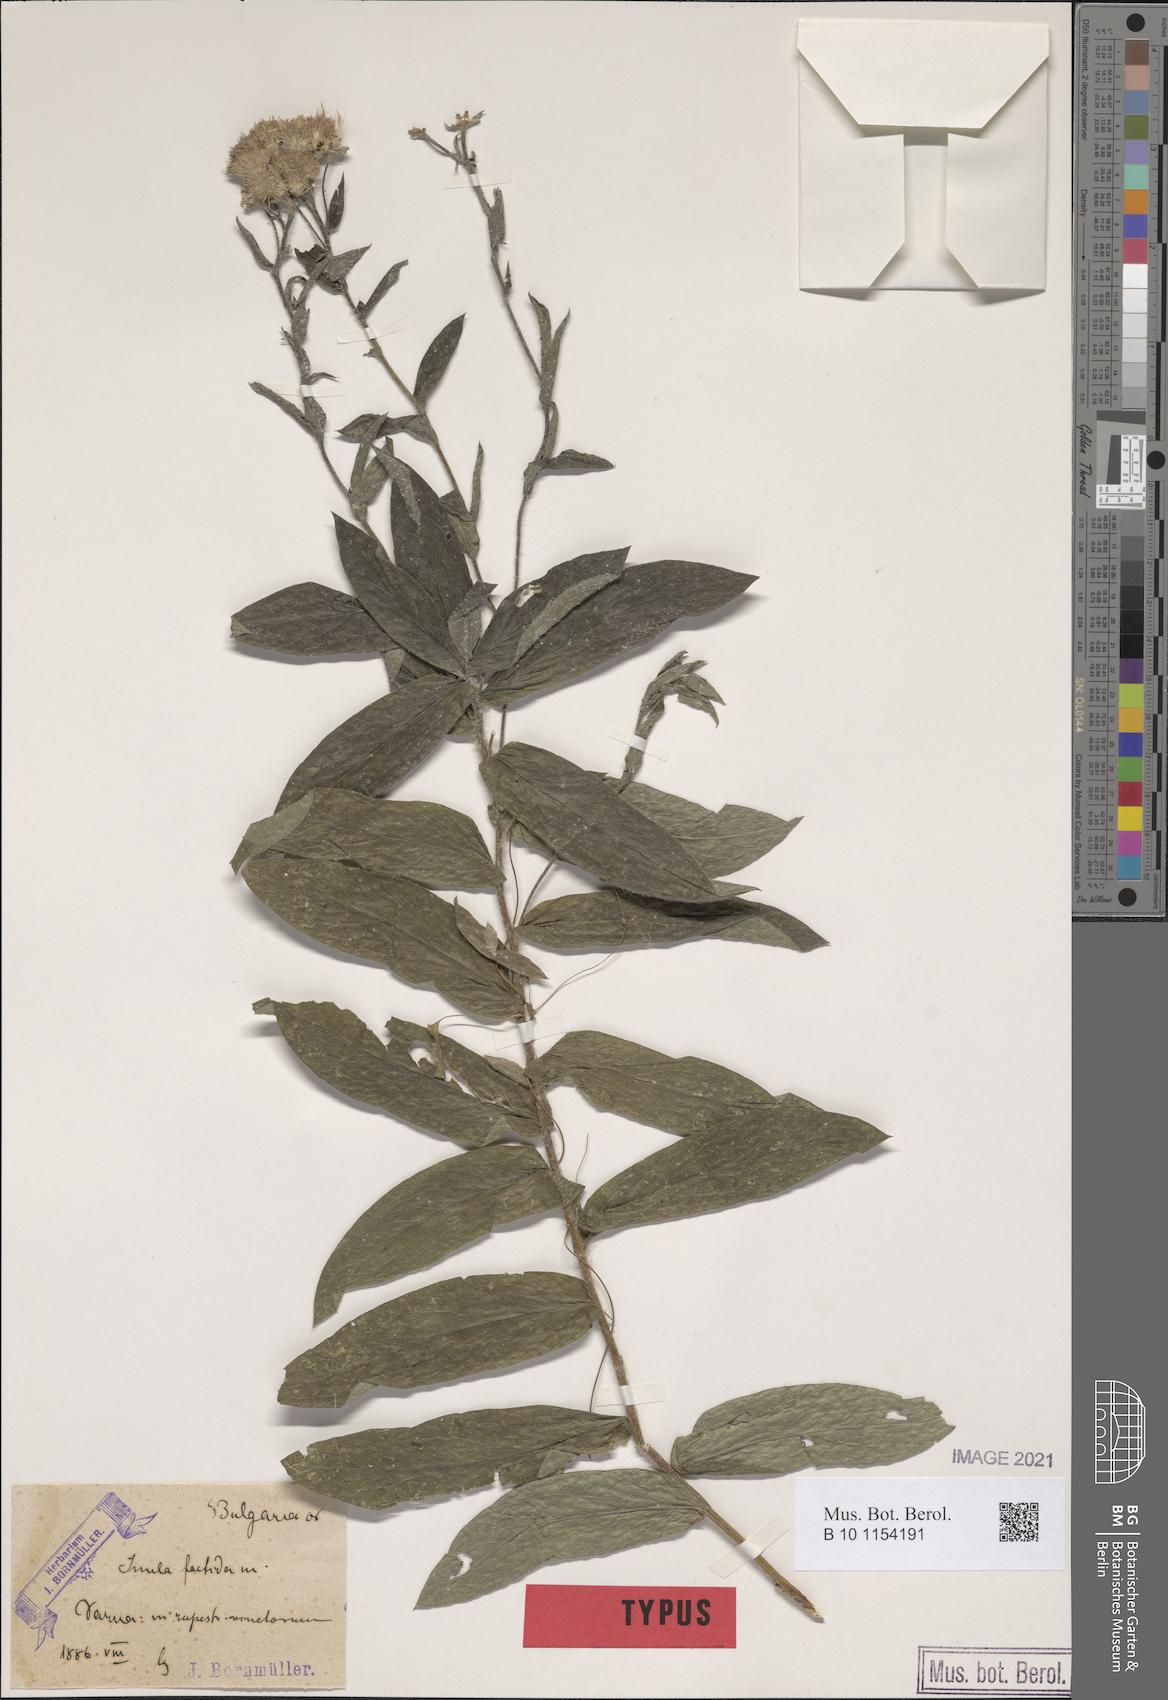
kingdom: Plantae
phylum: Tracheophyta
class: Magnoliopsida
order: Asterales
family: Asteraceae
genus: Pentanema
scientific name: Pentanema
